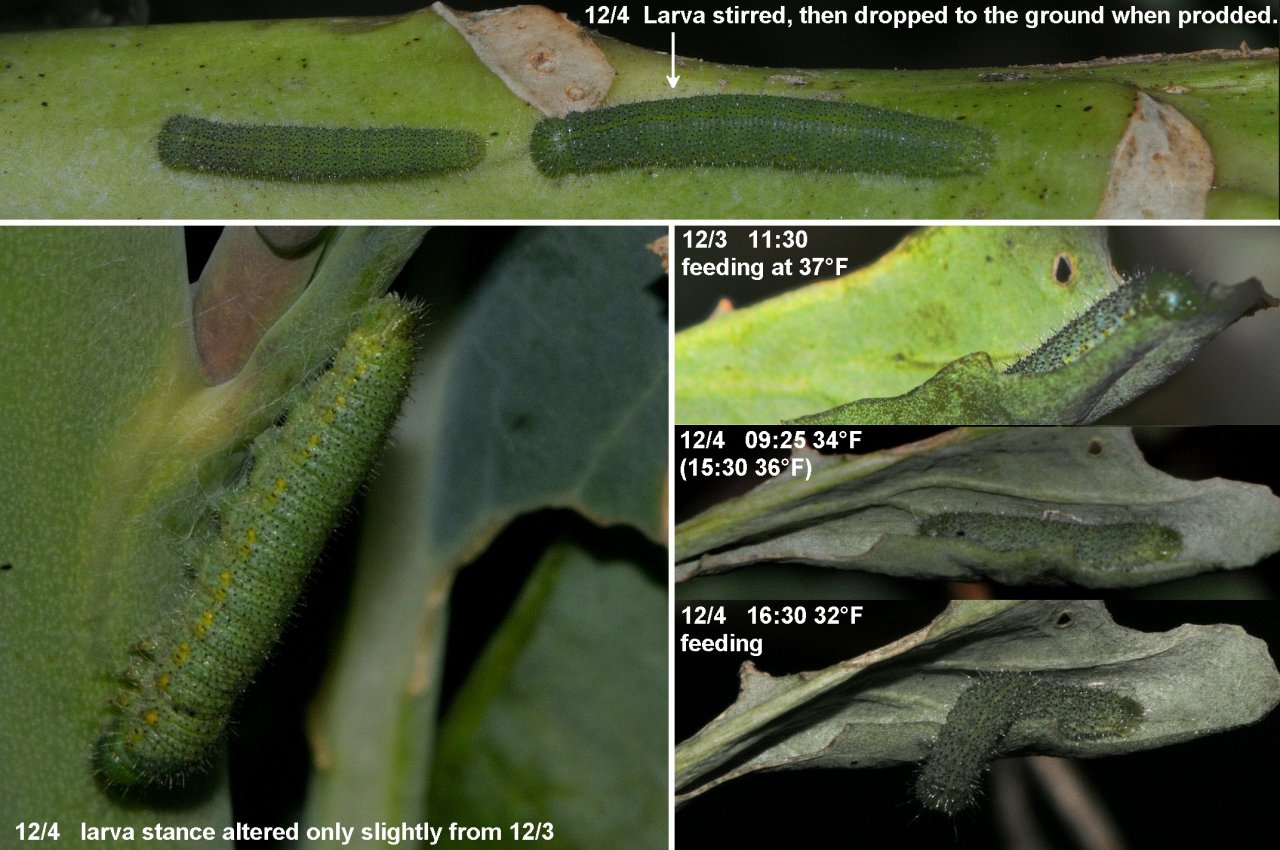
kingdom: Animalia
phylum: Arthropoda
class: Insecta
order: Lepidoptera
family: Pieridae
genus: Pieris
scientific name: Pieris rapae
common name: Cabbage White
